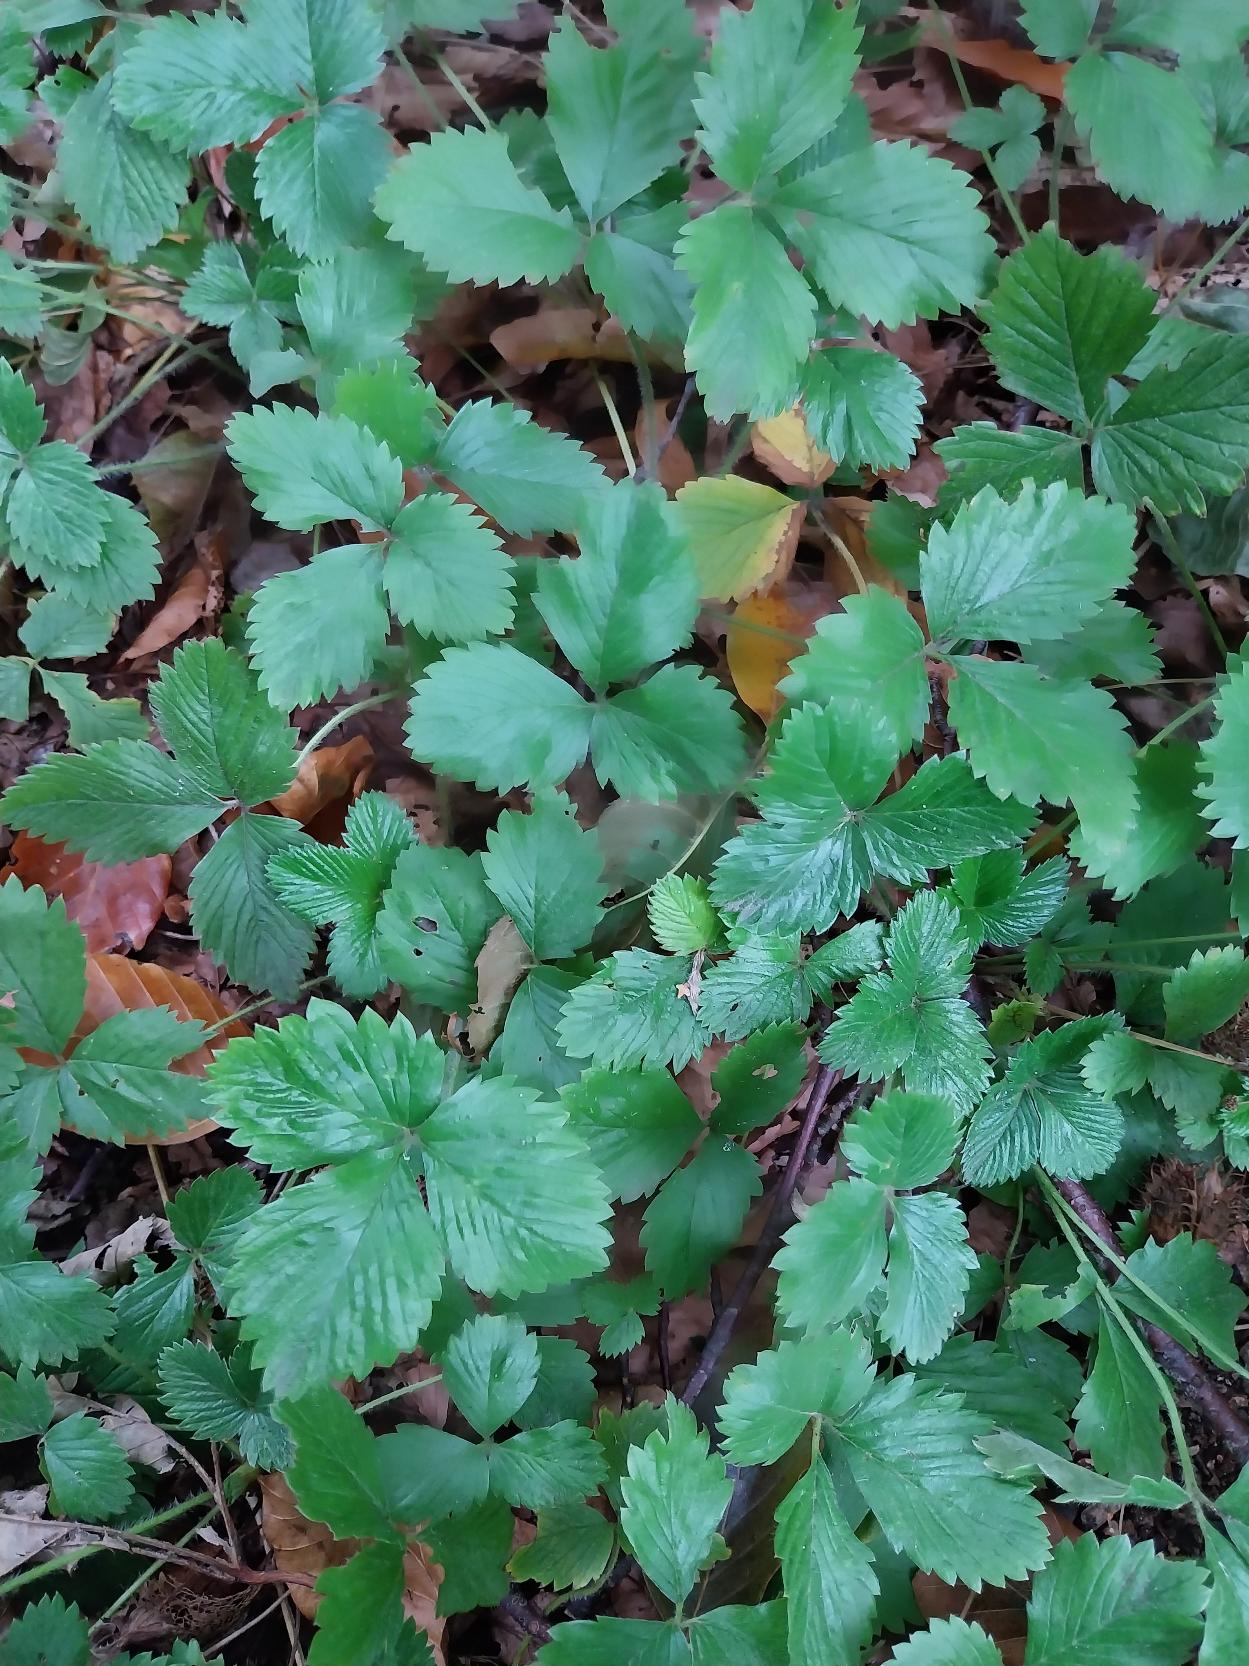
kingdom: Plantae
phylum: Tracheophyta
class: Magnoliopsida
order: Rosales
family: Rosaceae
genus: Fragaria
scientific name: Fragaria vesca
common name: Skov-jordbær
